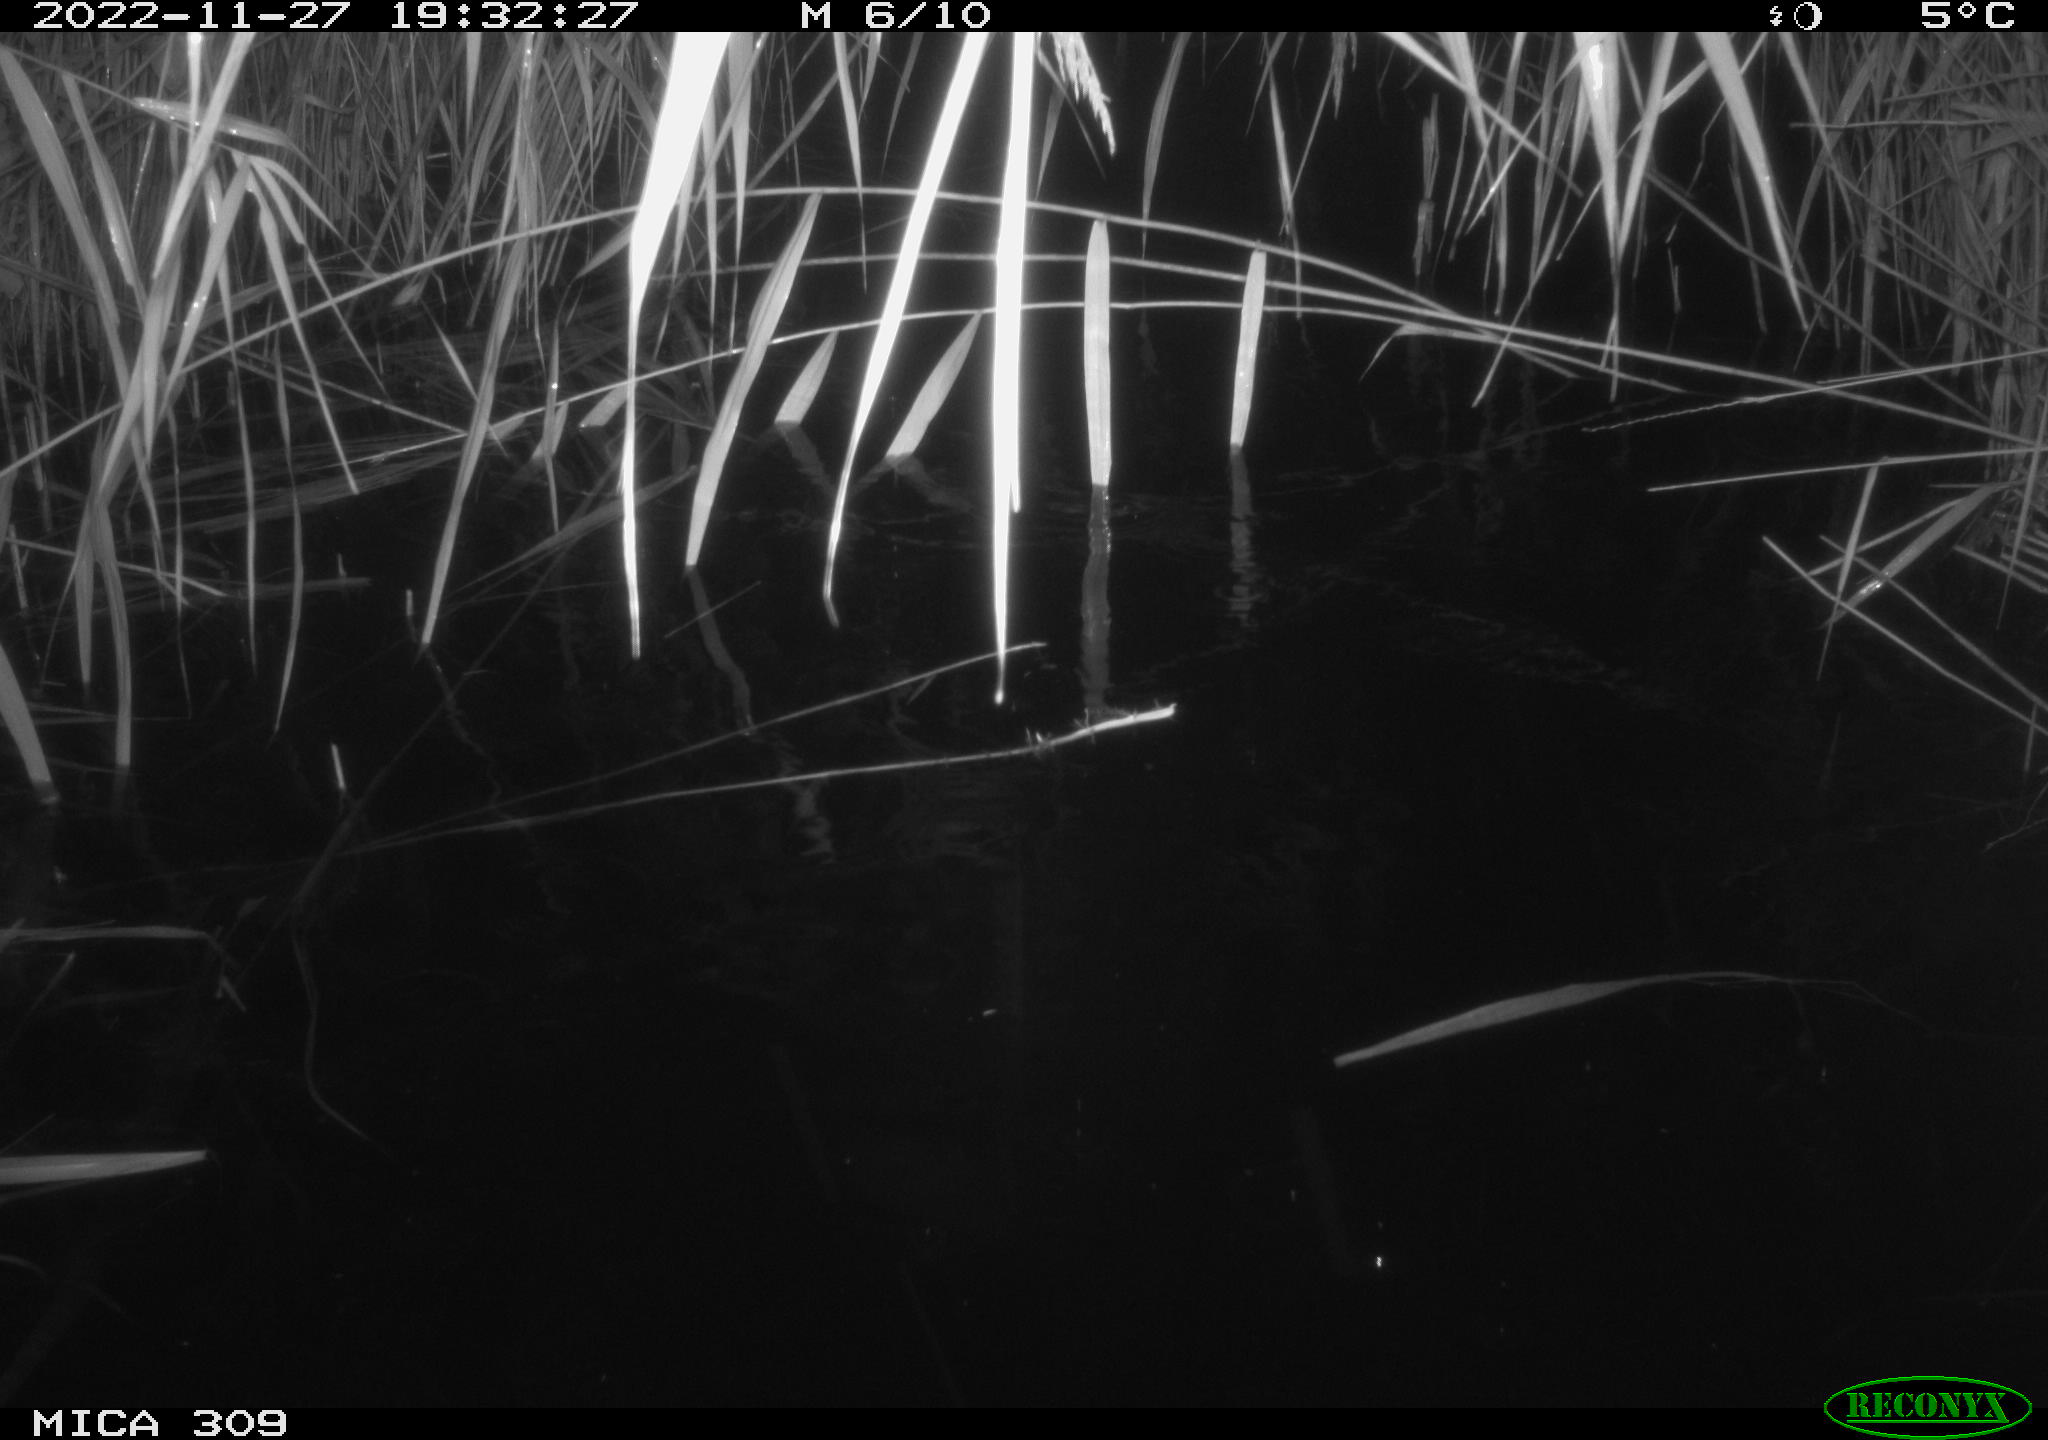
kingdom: Animalia
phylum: Chordata
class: Mammalia
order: Rodentia
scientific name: Rodentia
